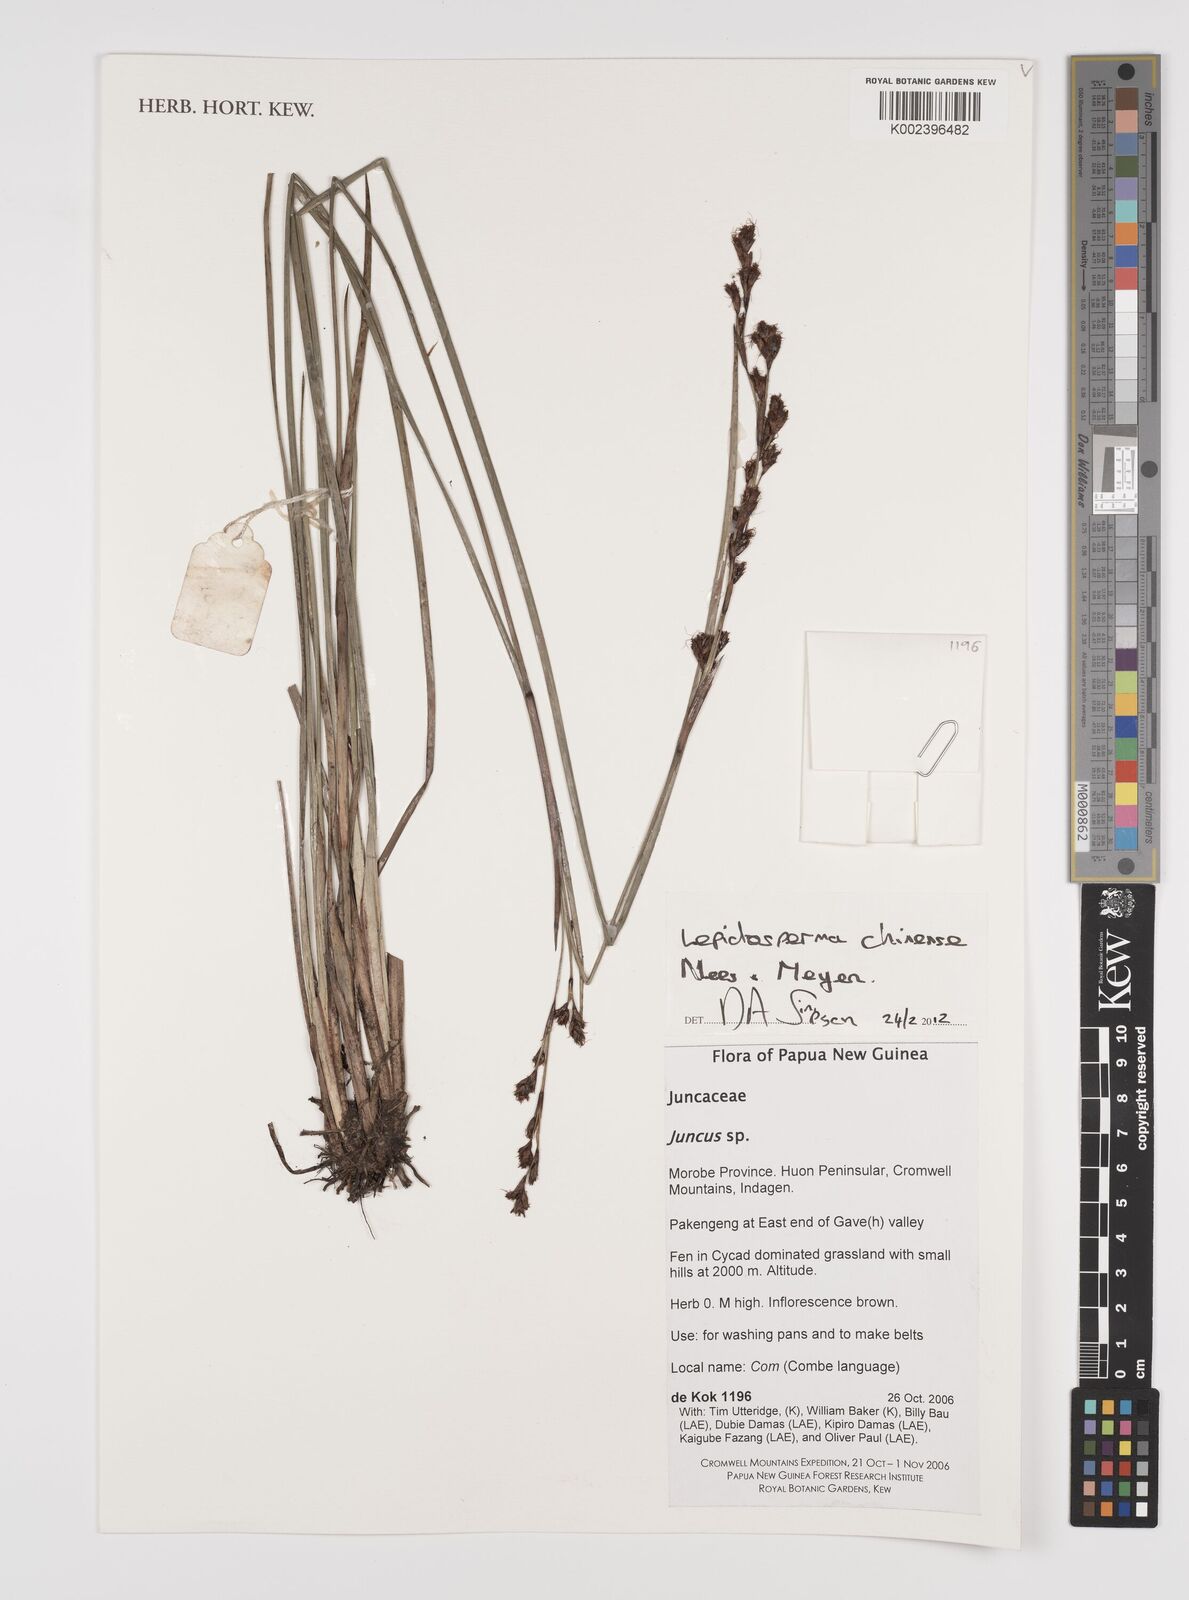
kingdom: Plantae
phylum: Tracheophyta
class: Liliopsida
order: Poales
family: Cyperaceae
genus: Lepidosperma
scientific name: Lepidosperma chinense
